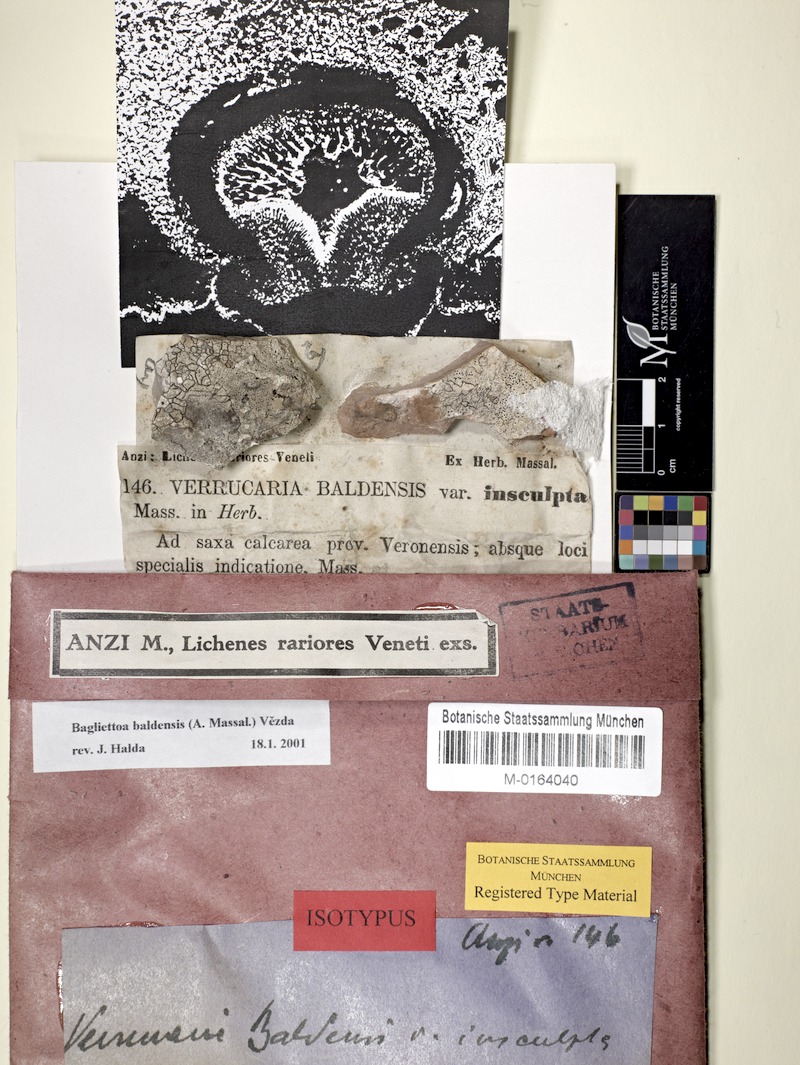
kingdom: Fungi
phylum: Ascomycota
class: Eurotiomycetes
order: Verrucariales
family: Verrucariaceae
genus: Bagliettoa
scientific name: Bagliettoa baldensis
